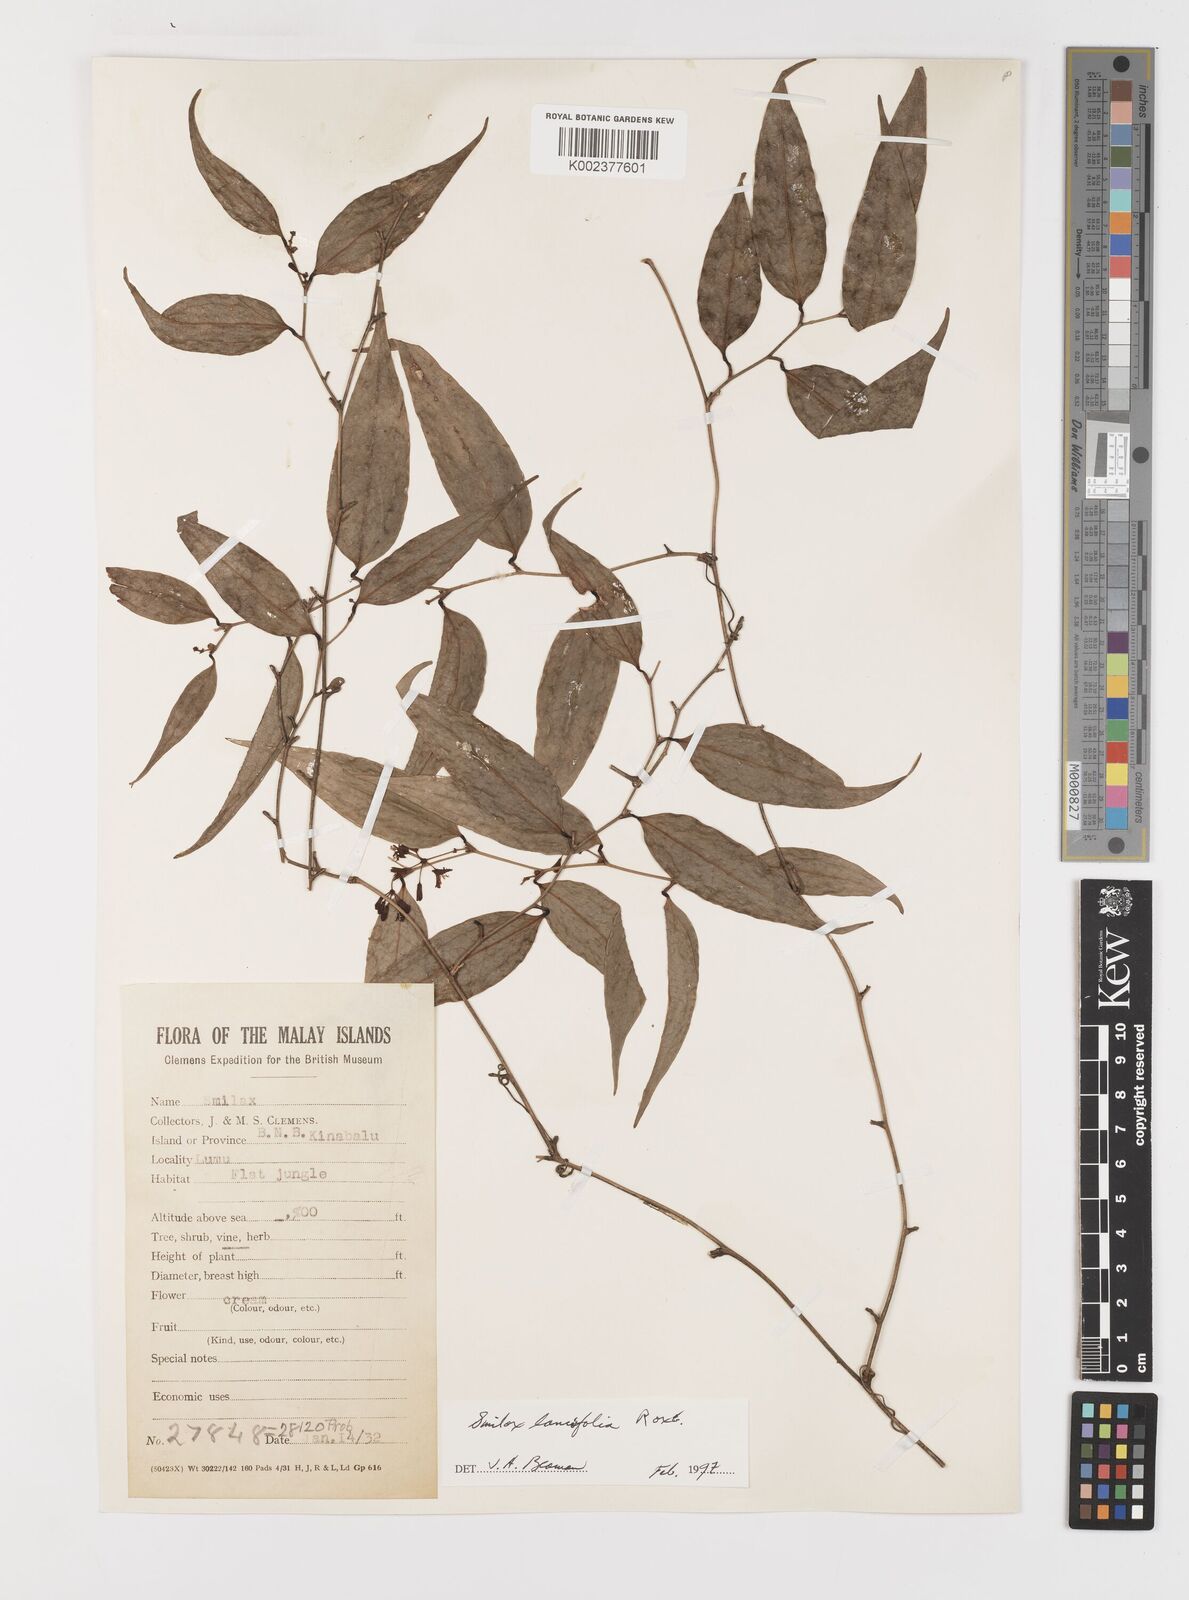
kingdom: Plantae
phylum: Tracheophyta
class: Liliopsida
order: Liliales
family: Smilacaceae
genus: Smilax
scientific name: Smilax lanceifolia
